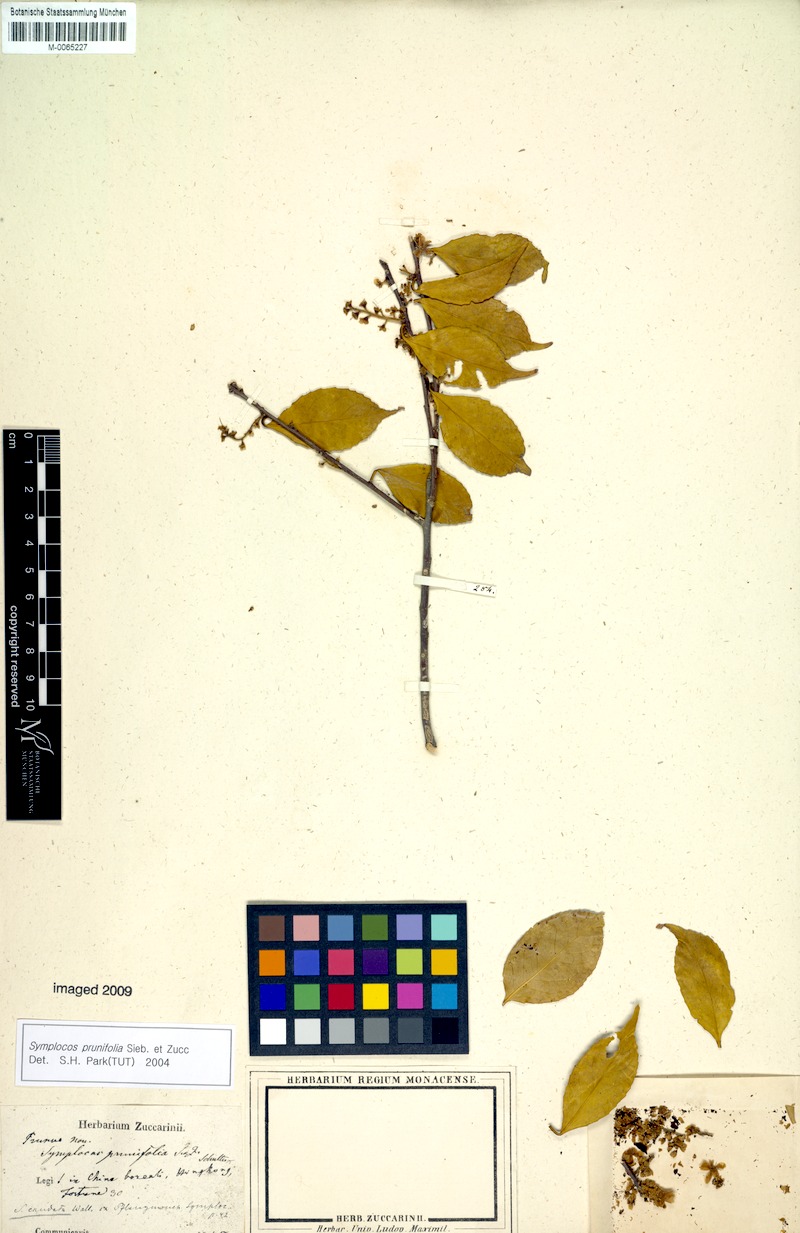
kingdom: Plantae
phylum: Tracheophyta
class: Magnoliopsida
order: Ericales
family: Symplocaceae
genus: Symplocos
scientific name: Symplocos sumuntia
